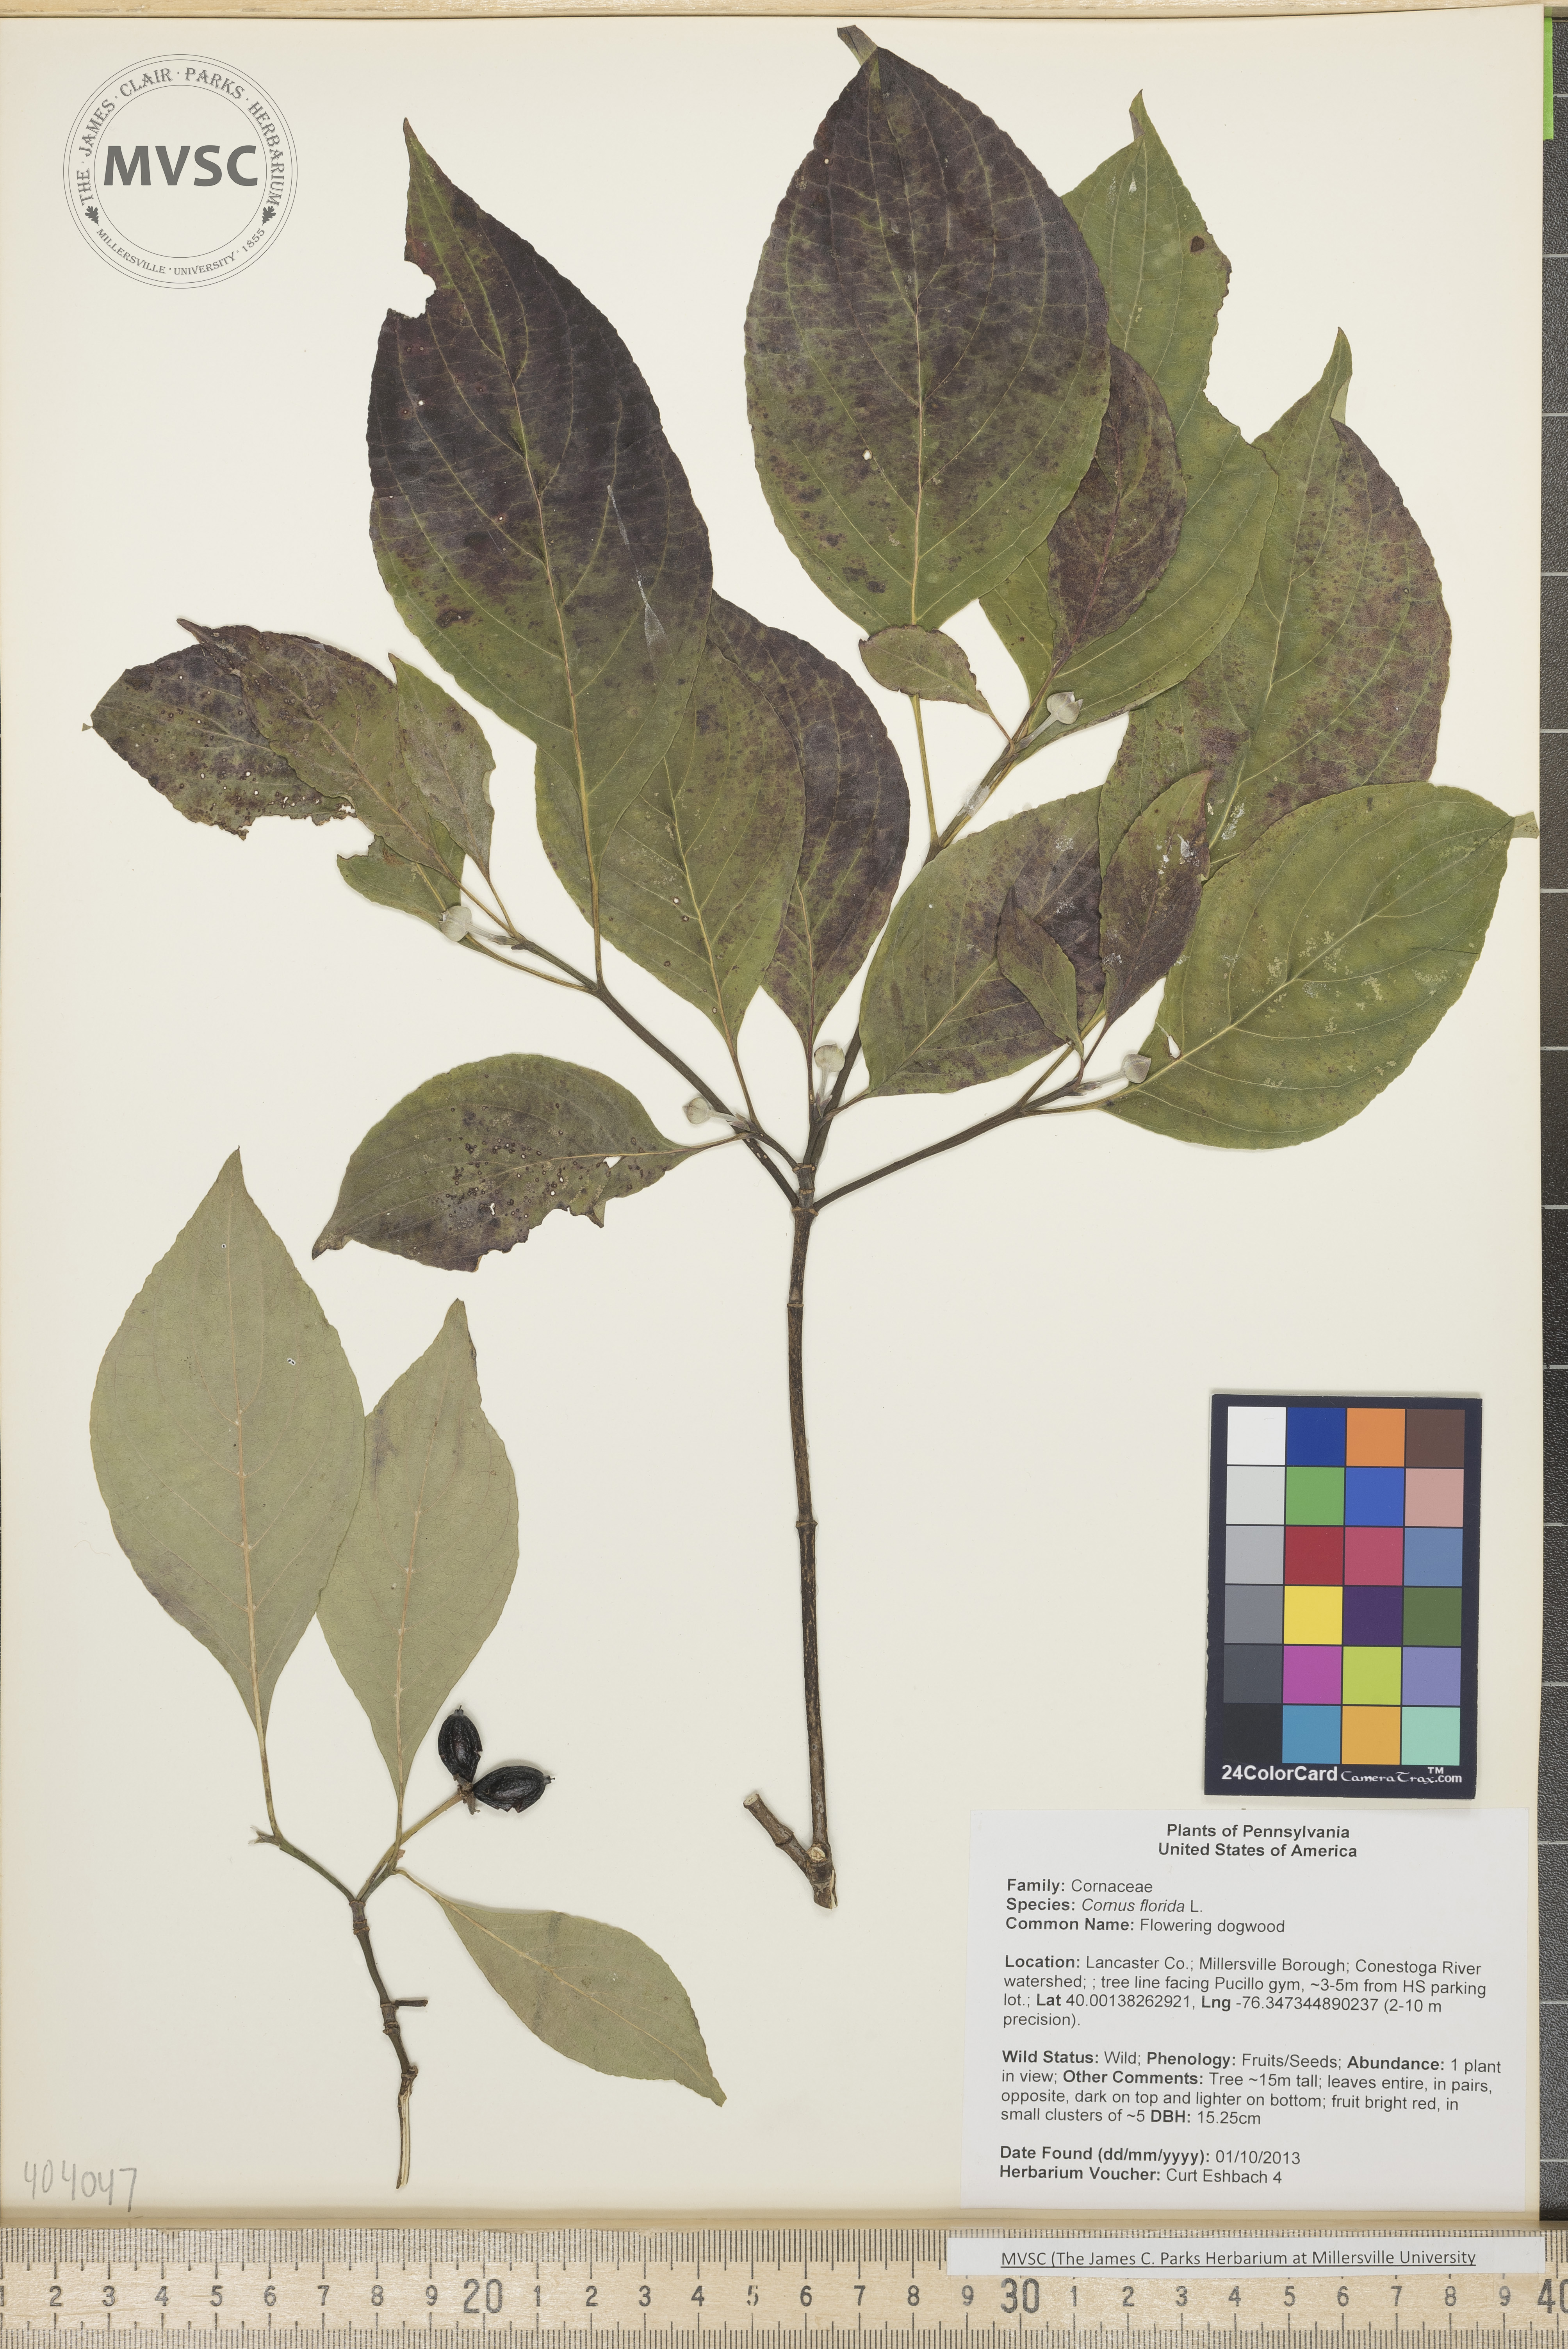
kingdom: Plantae
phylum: Tracheophyta
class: Magnoliopsida
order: Cornales
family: Cornaceae
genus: Cornus
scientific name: Cornus florida
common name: Flowering dogwood
